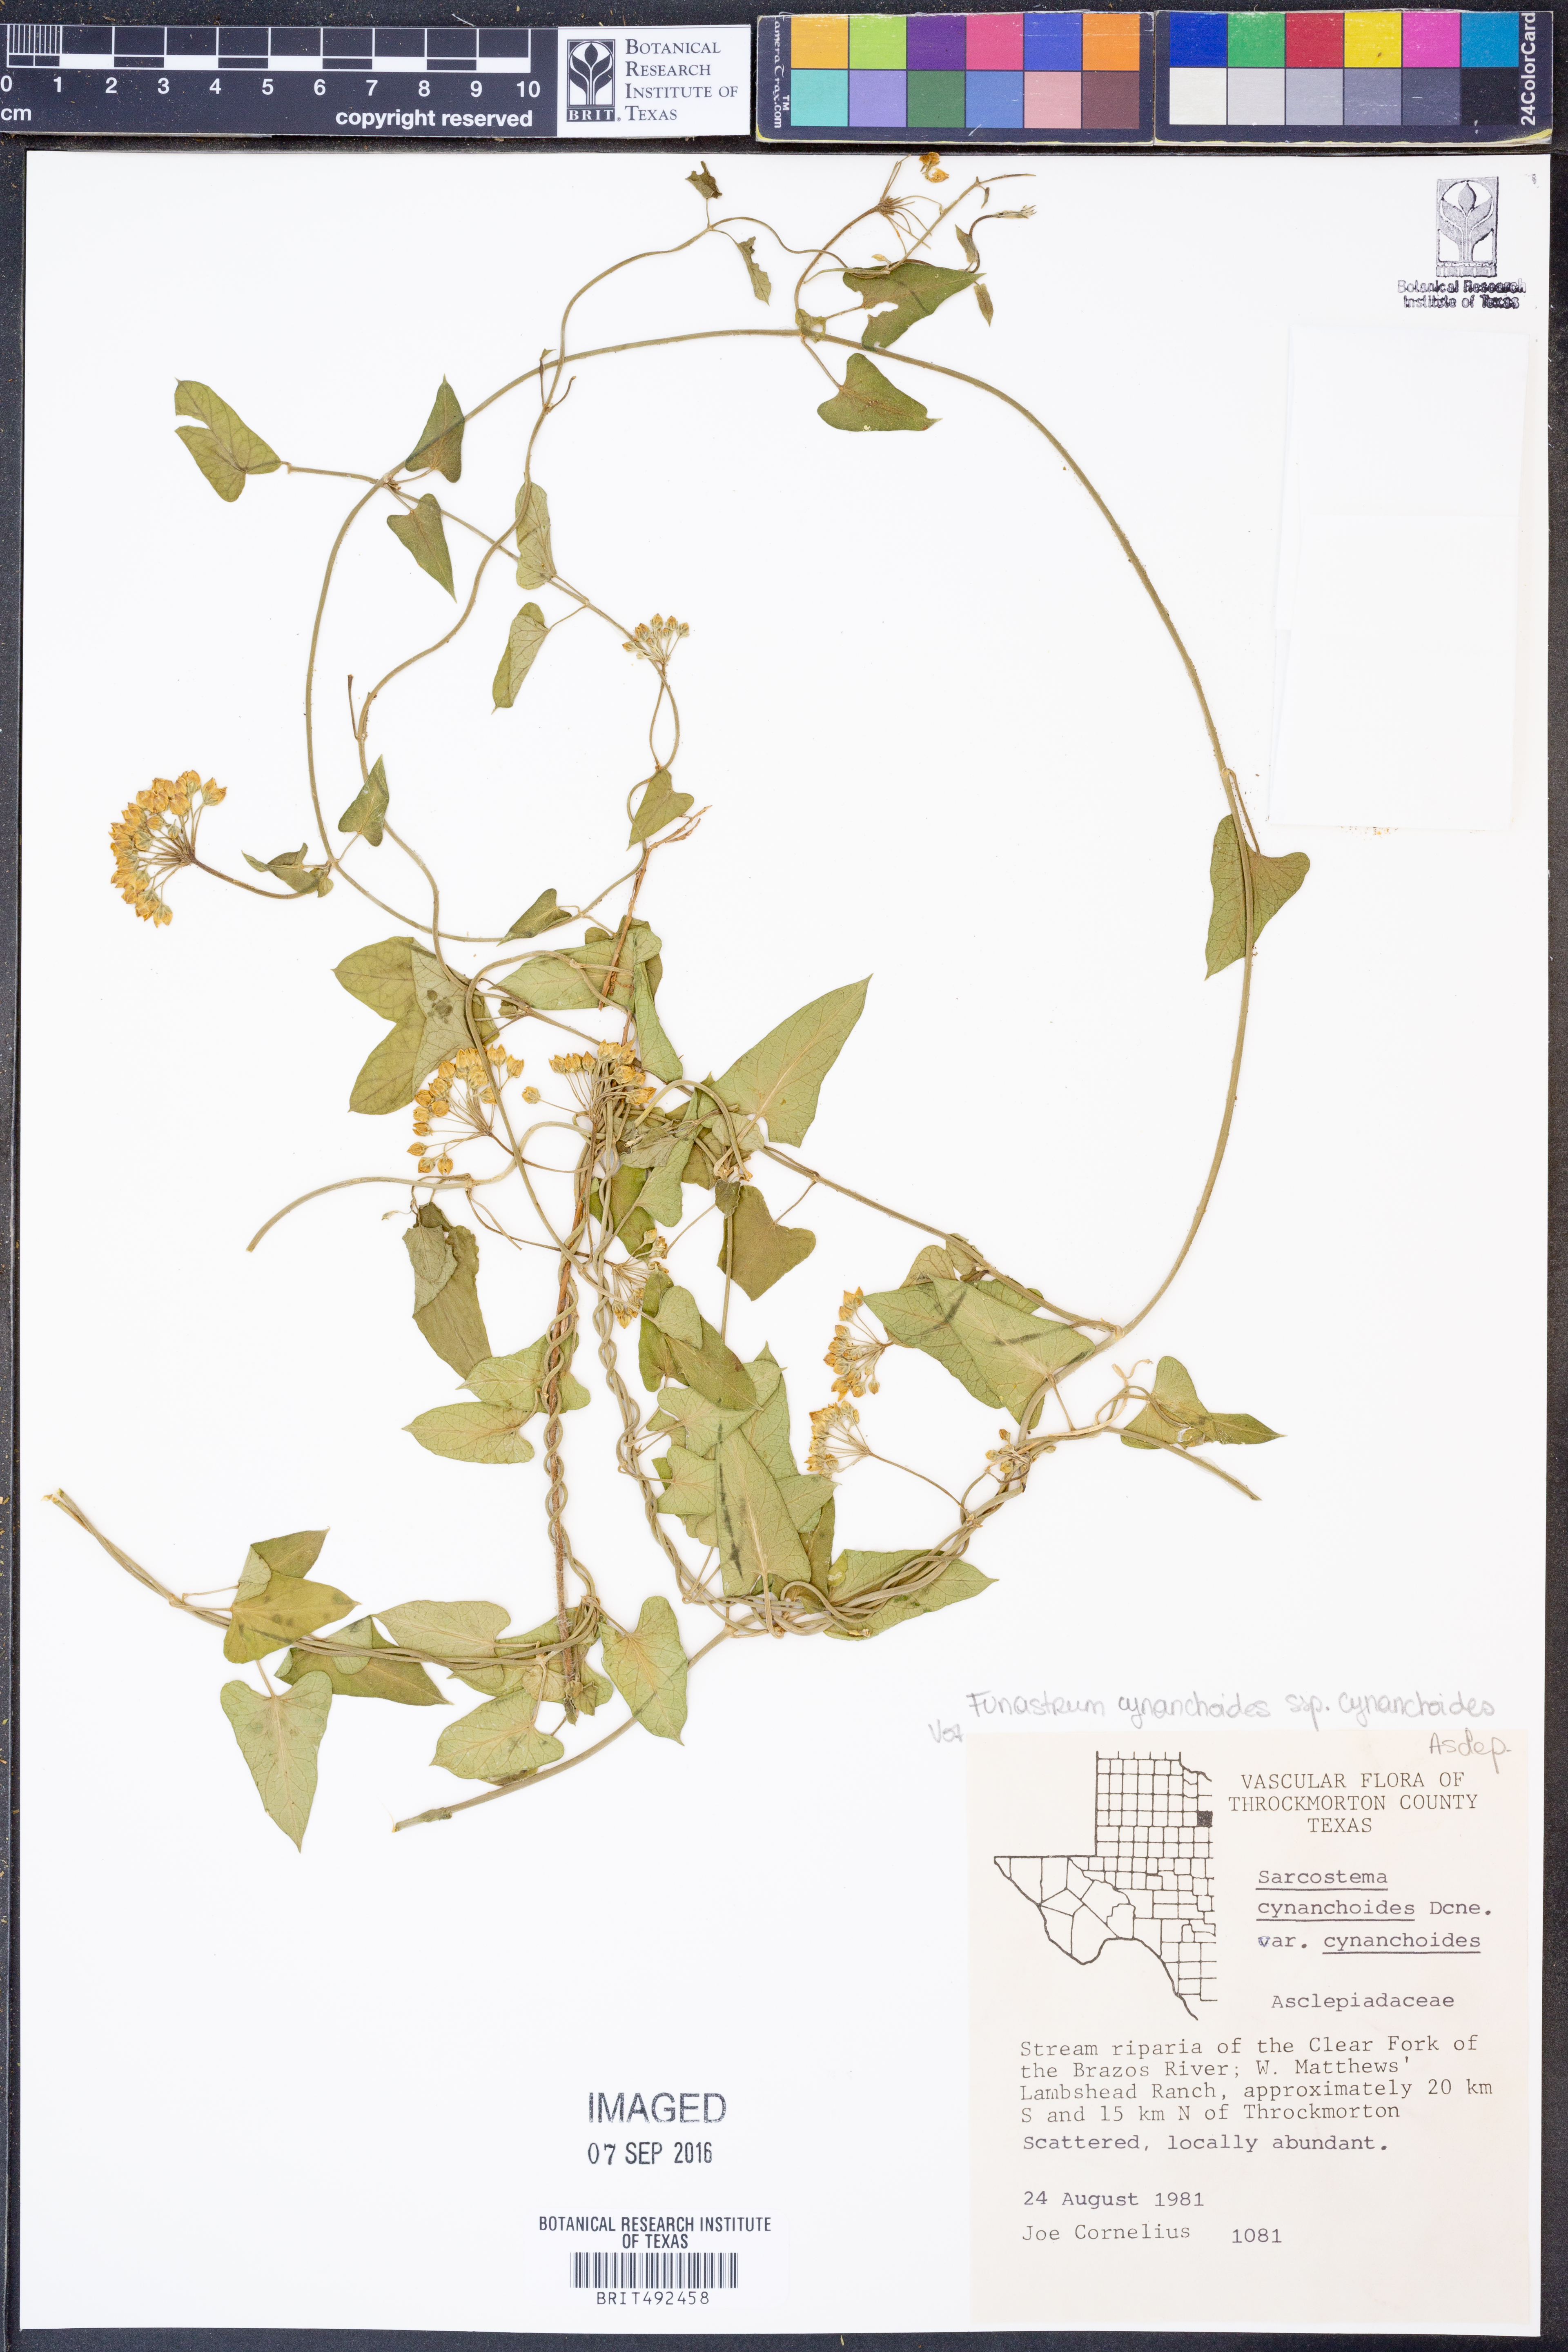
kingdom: Plantae
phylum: Tracheophyta
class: Magnoliopsida
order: Gentianales
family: Apocynaceae
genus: Funastrum
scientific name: Funastrum cynanchoides
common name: Climbing-milkweed
